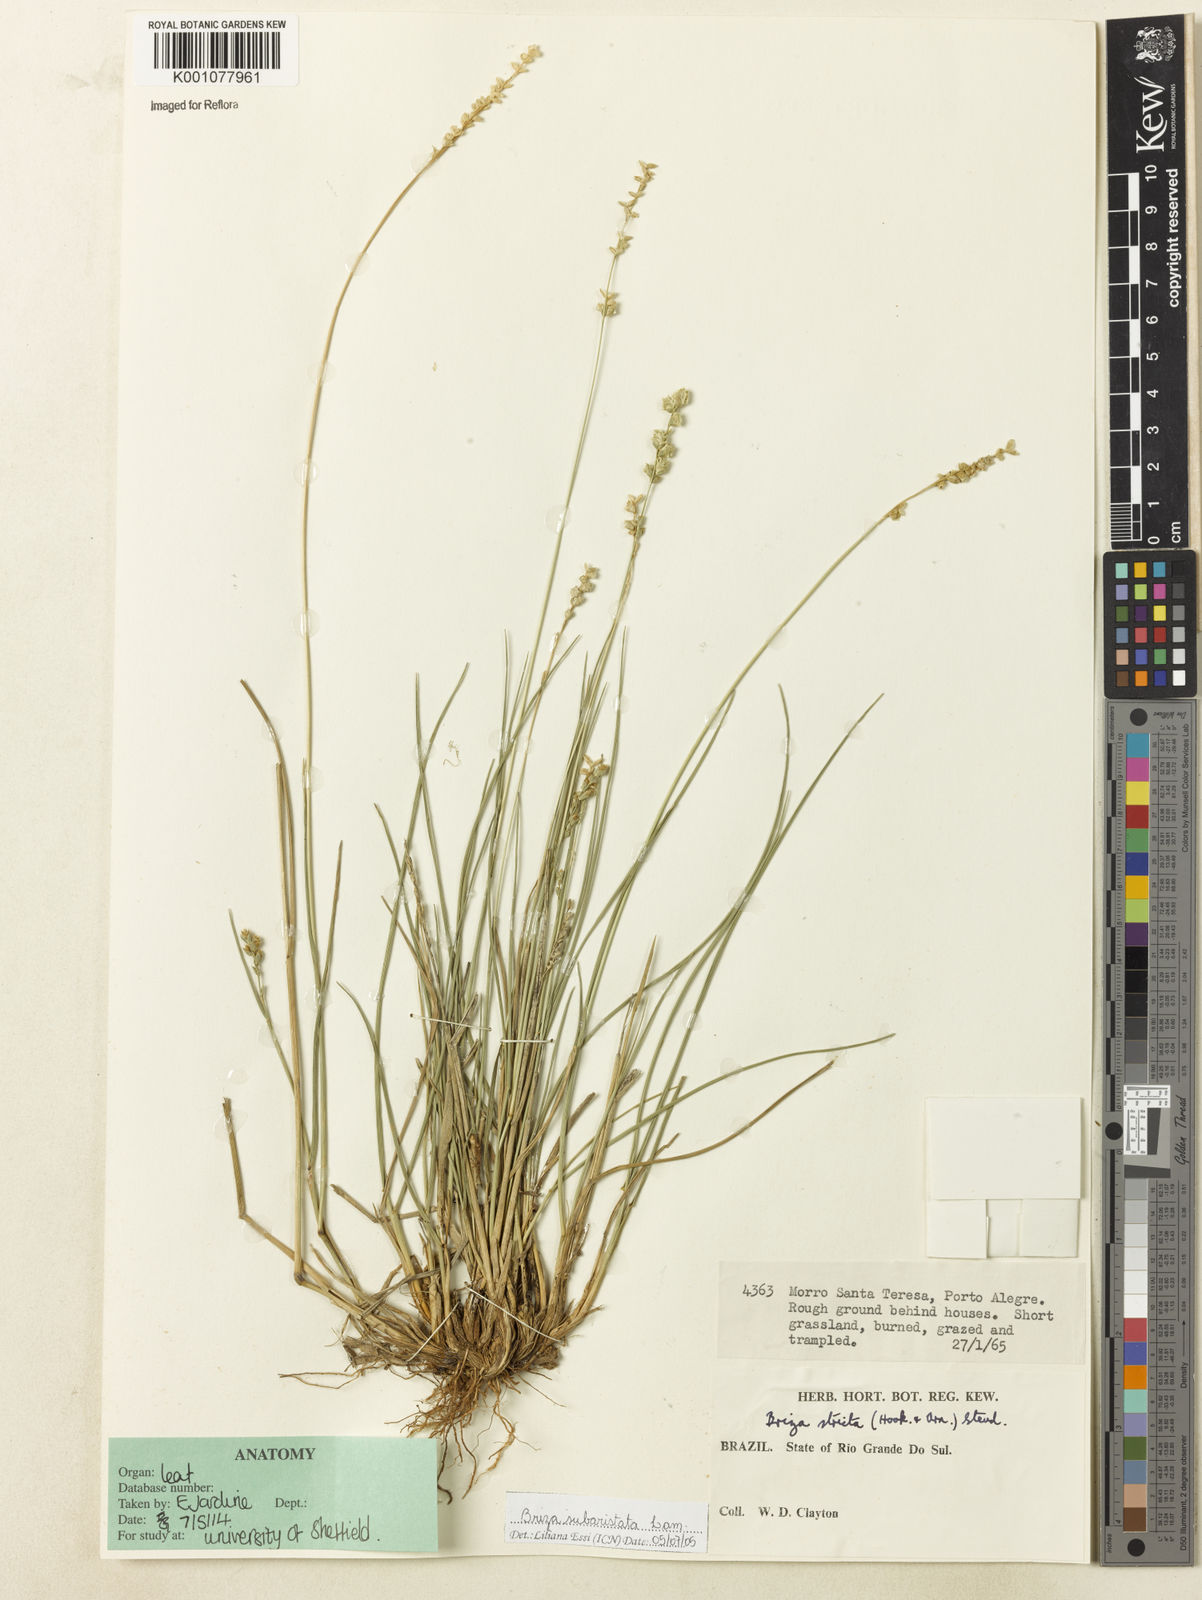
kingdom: Plantae
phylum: Tracheophyta
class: Liliopsida
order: Poales
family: Poaceae
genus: Briza
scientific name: Briza
